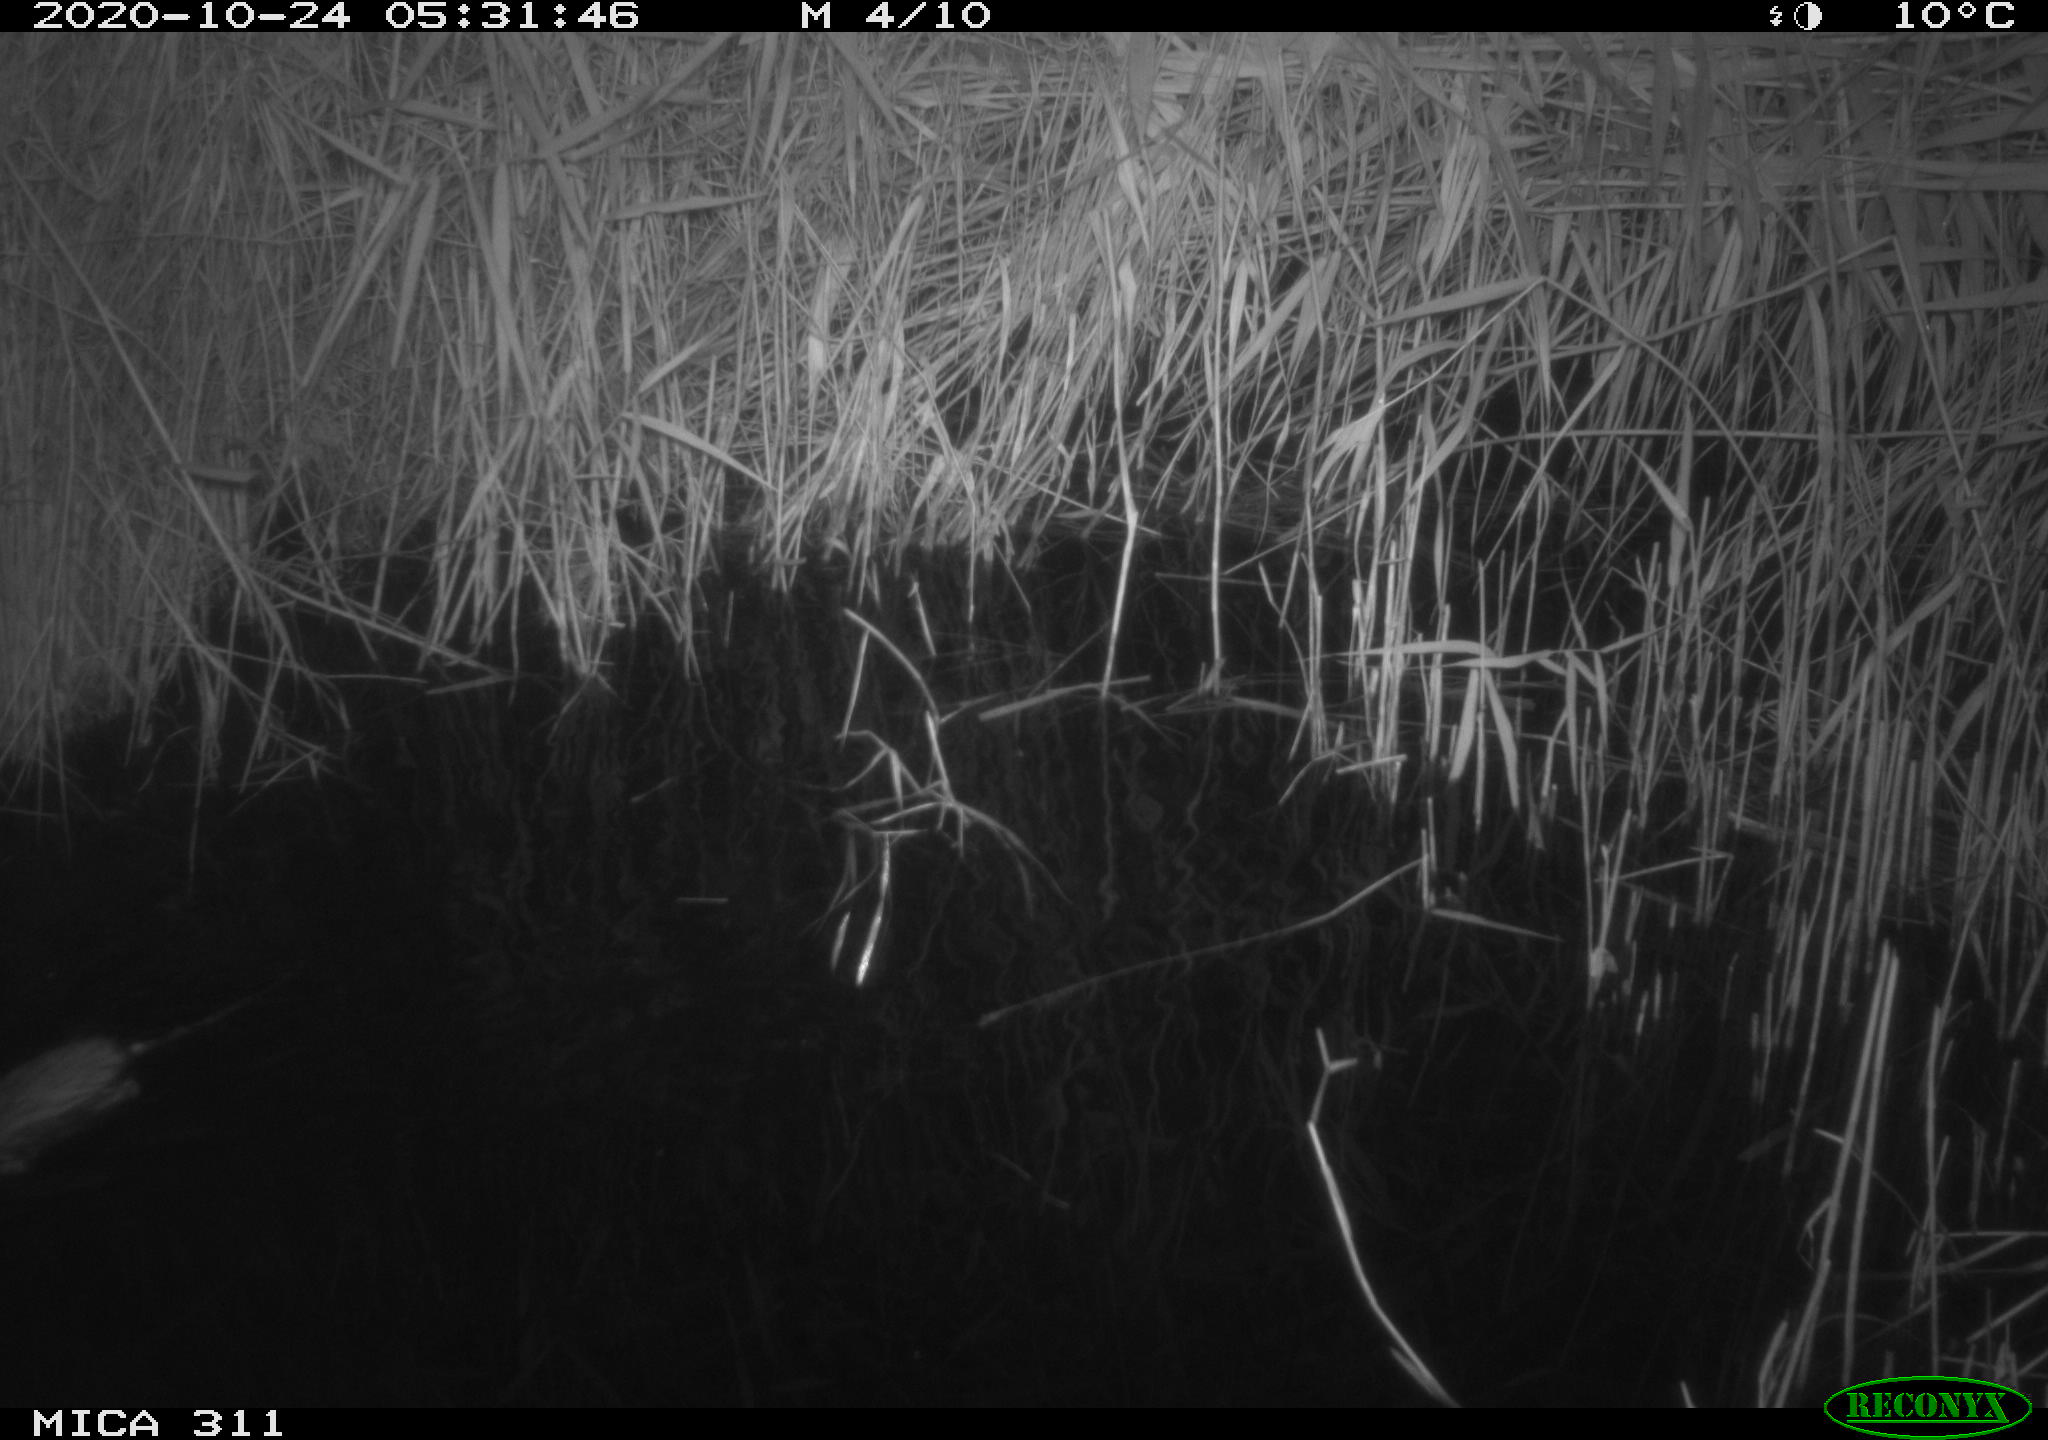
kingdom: Animalia
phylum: Chordata
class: Mammalia
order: Rodentia
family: Cricetidae
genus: Ondatra
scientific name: Ondatra zibethicus
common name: Muskrat
